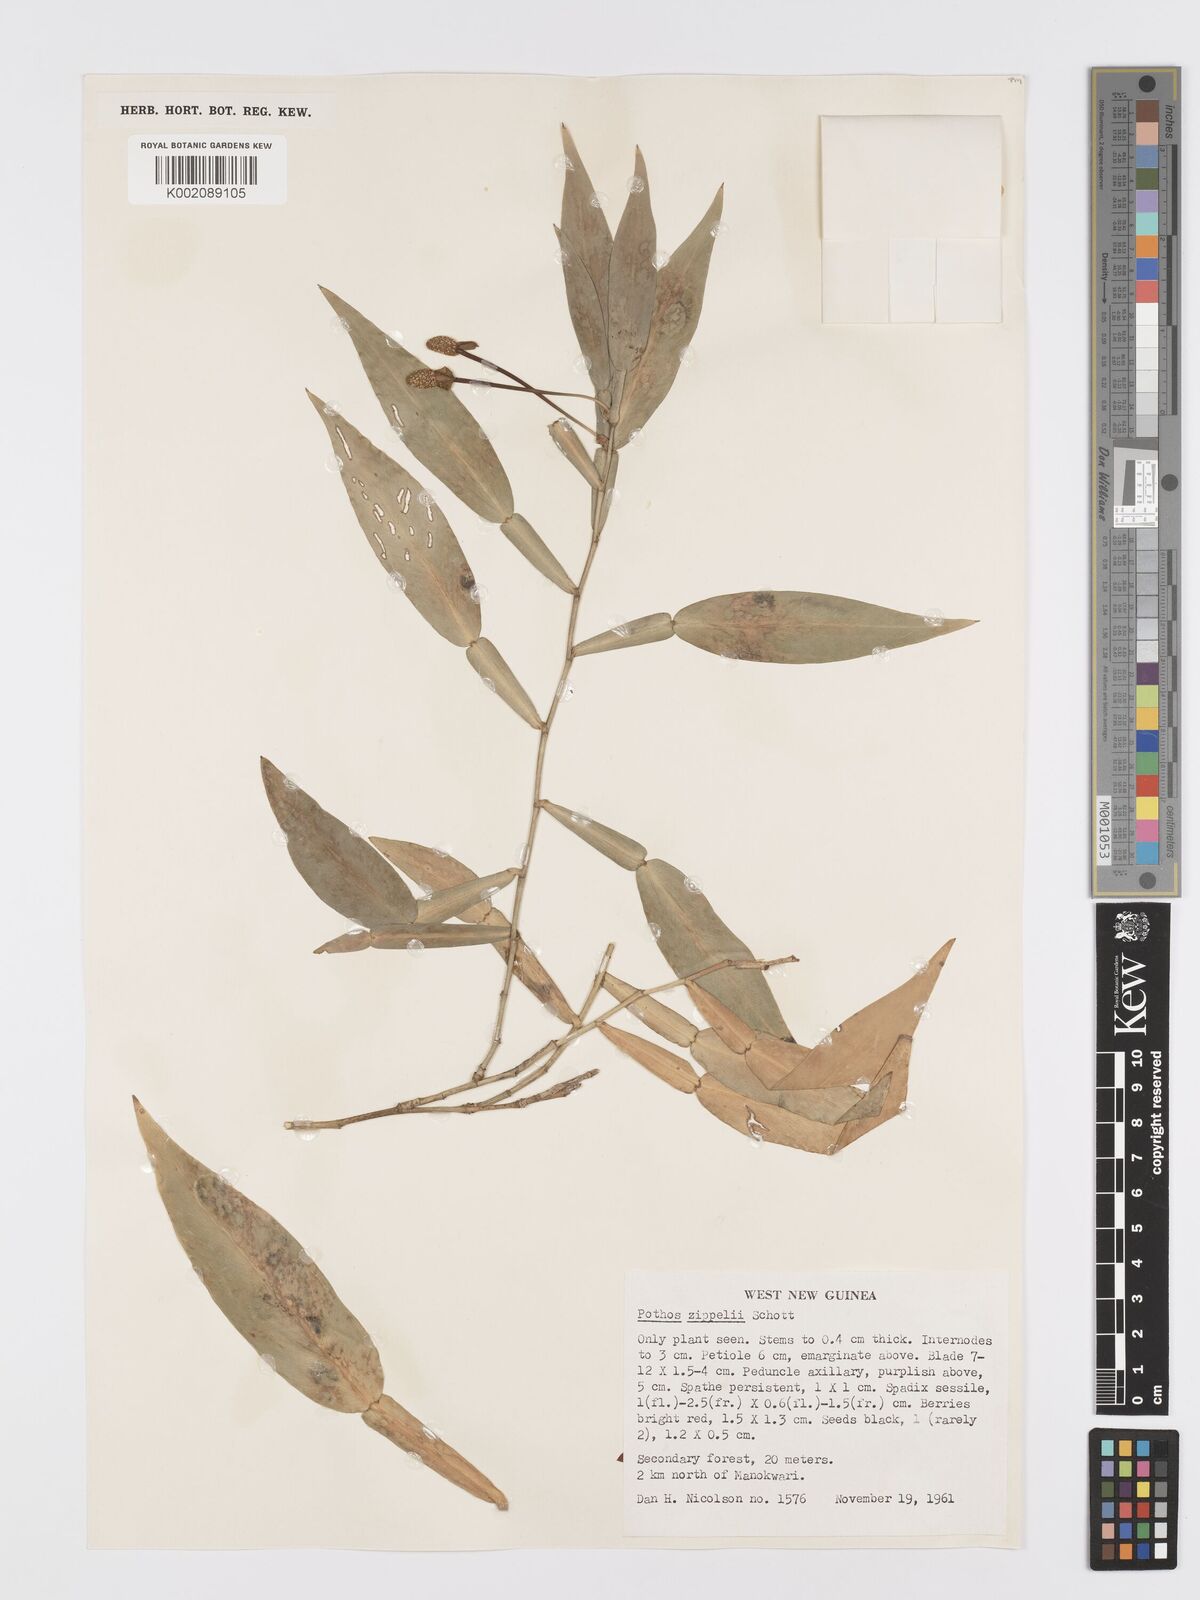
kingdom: Plantae
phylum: Tracheophyta
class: Liliopsida
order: Alismatales
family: Araceae
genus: Pothos
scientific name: Pothos zippelii
